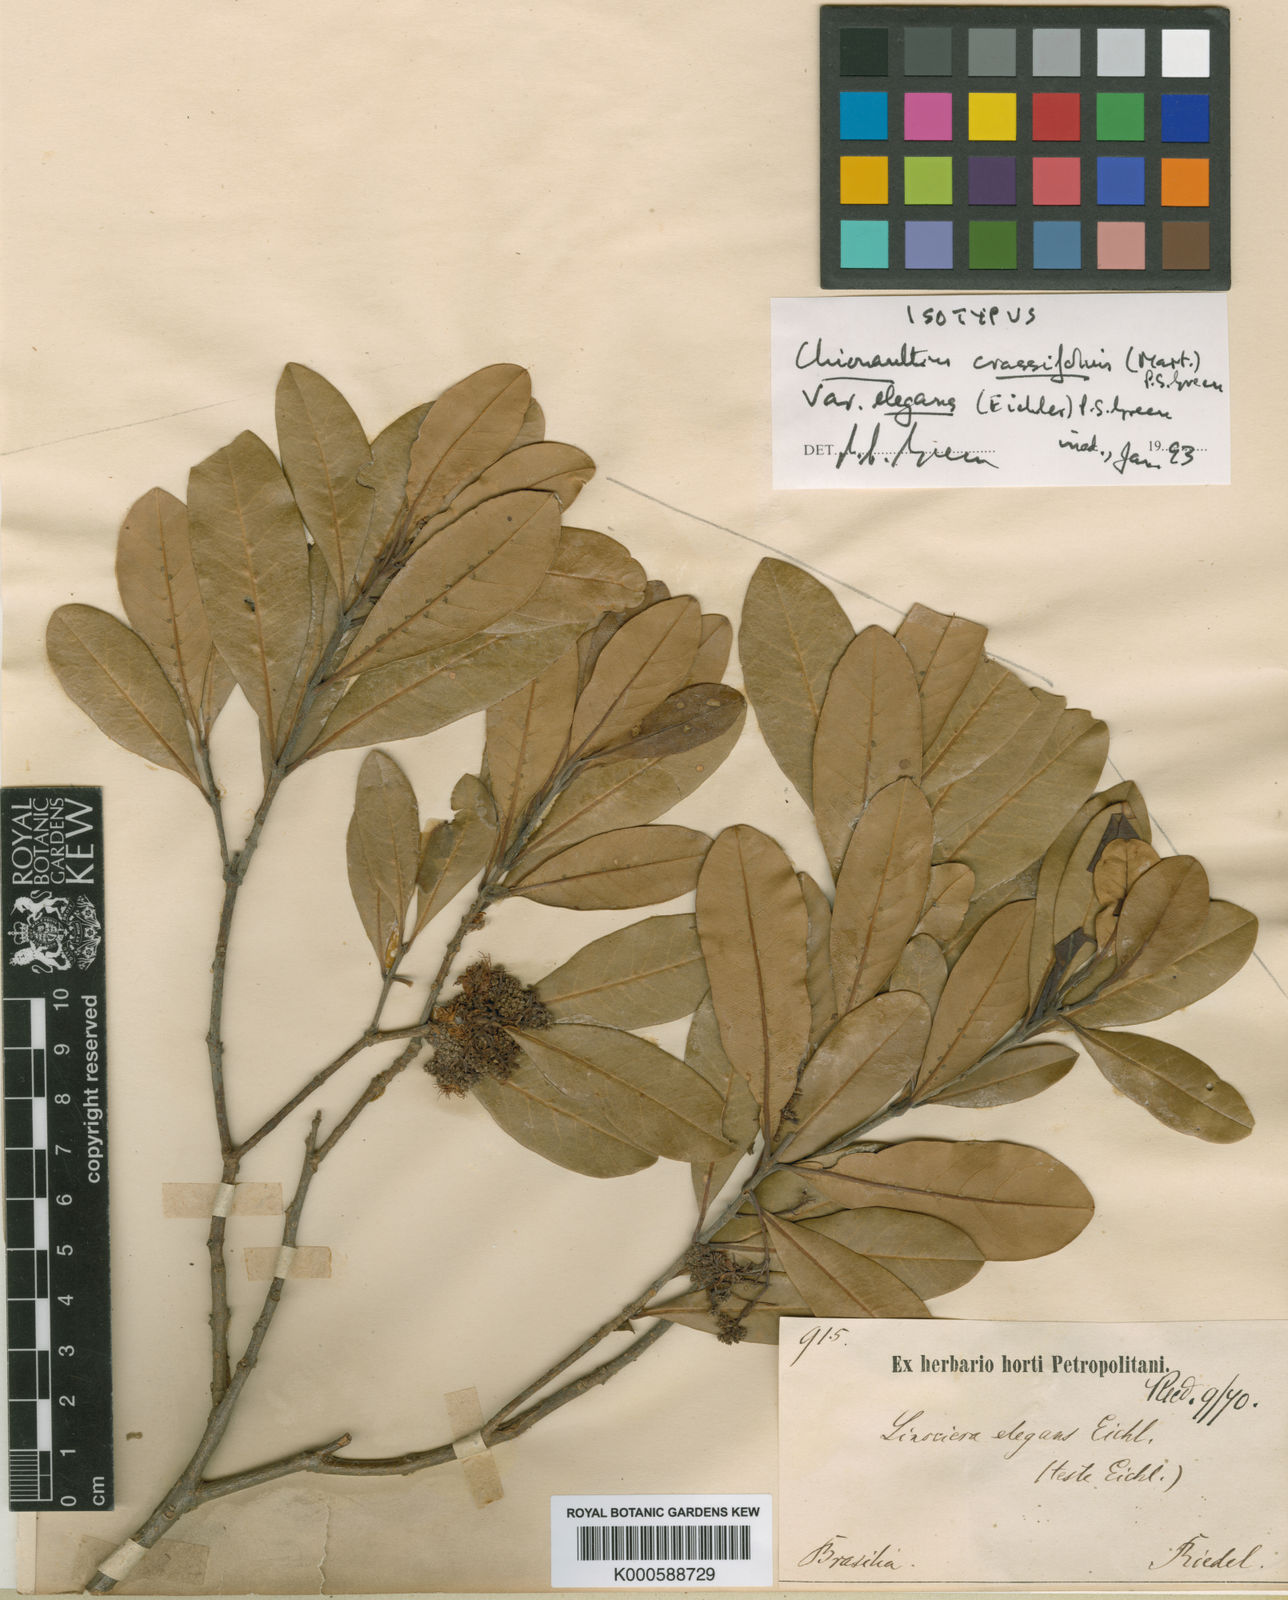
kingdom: Plantae
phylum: Tracheophyta
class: Magnoliopsida
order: Lamiales
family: Oleaceae
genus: Chionanthus
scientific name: Chionanthus crassifolius
